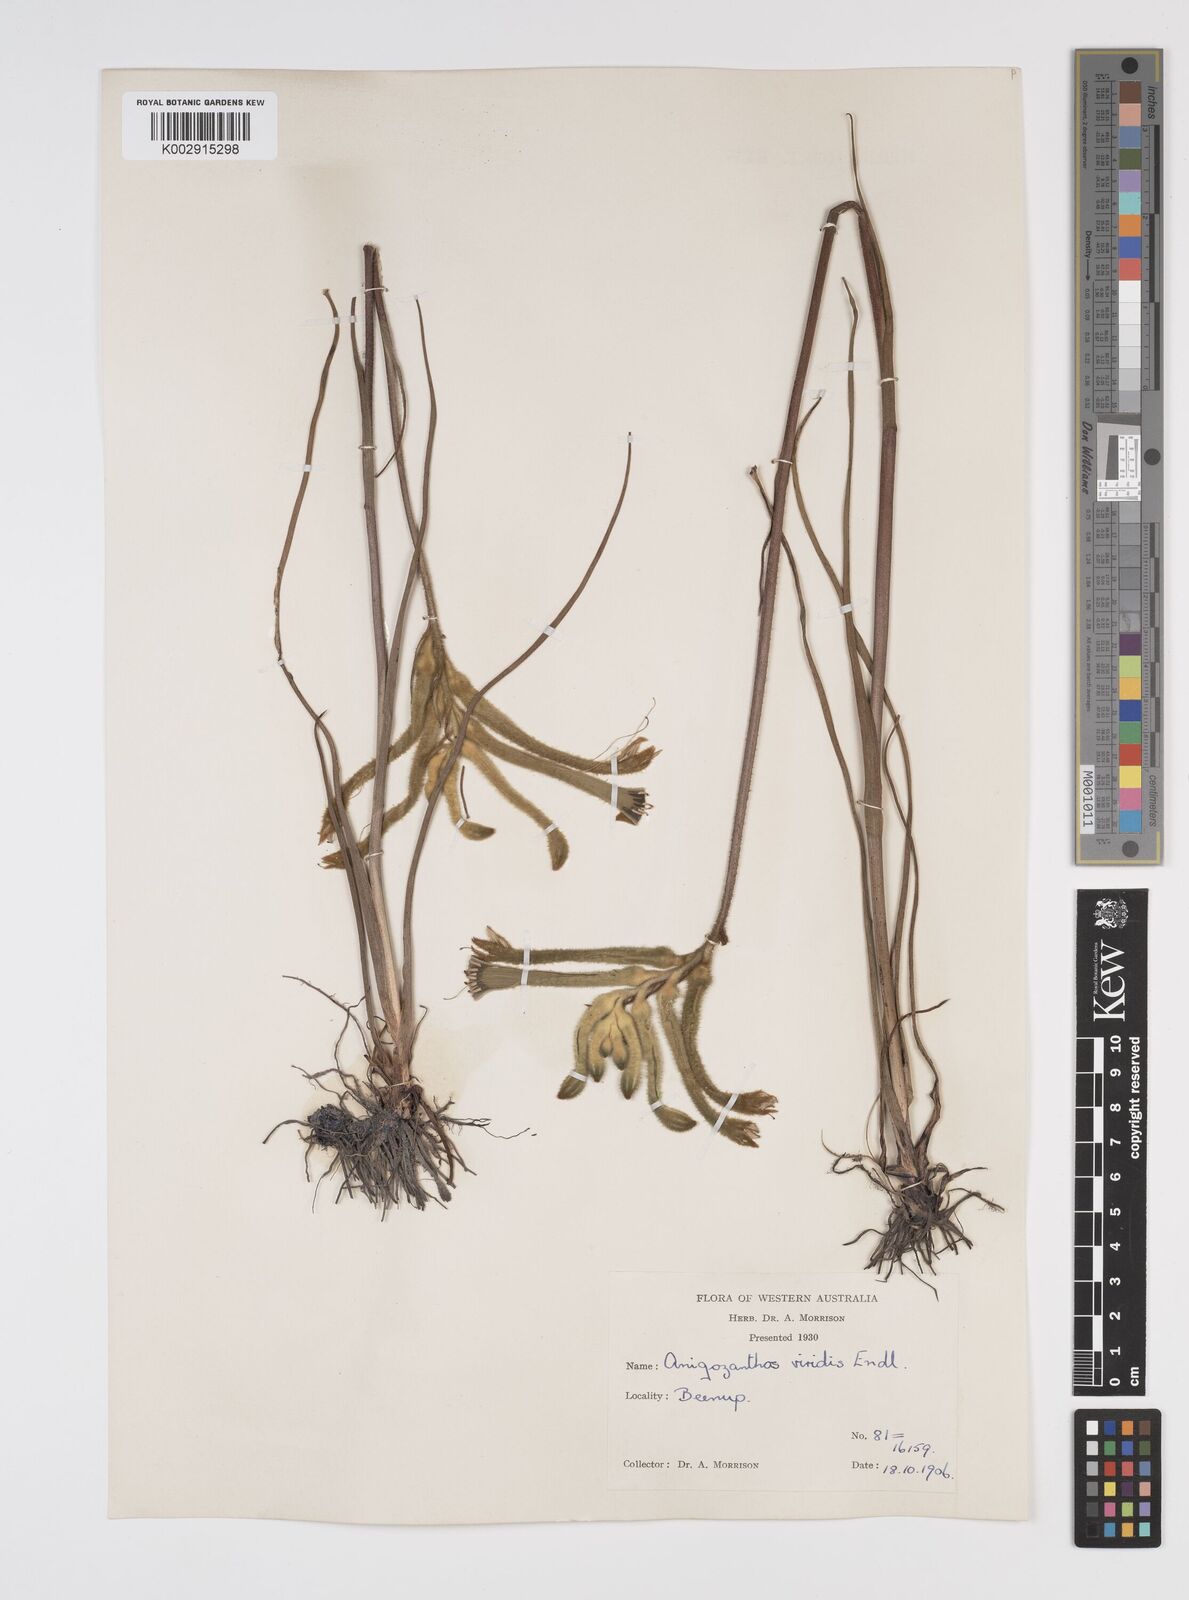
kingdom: Plantae
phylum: Tracheophyta
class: Liliopsida
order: Commelinales
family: Haemodoraceae
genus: Anigozanthos
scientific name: Anigozanthos viridis
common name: Green kangaroo-paw
